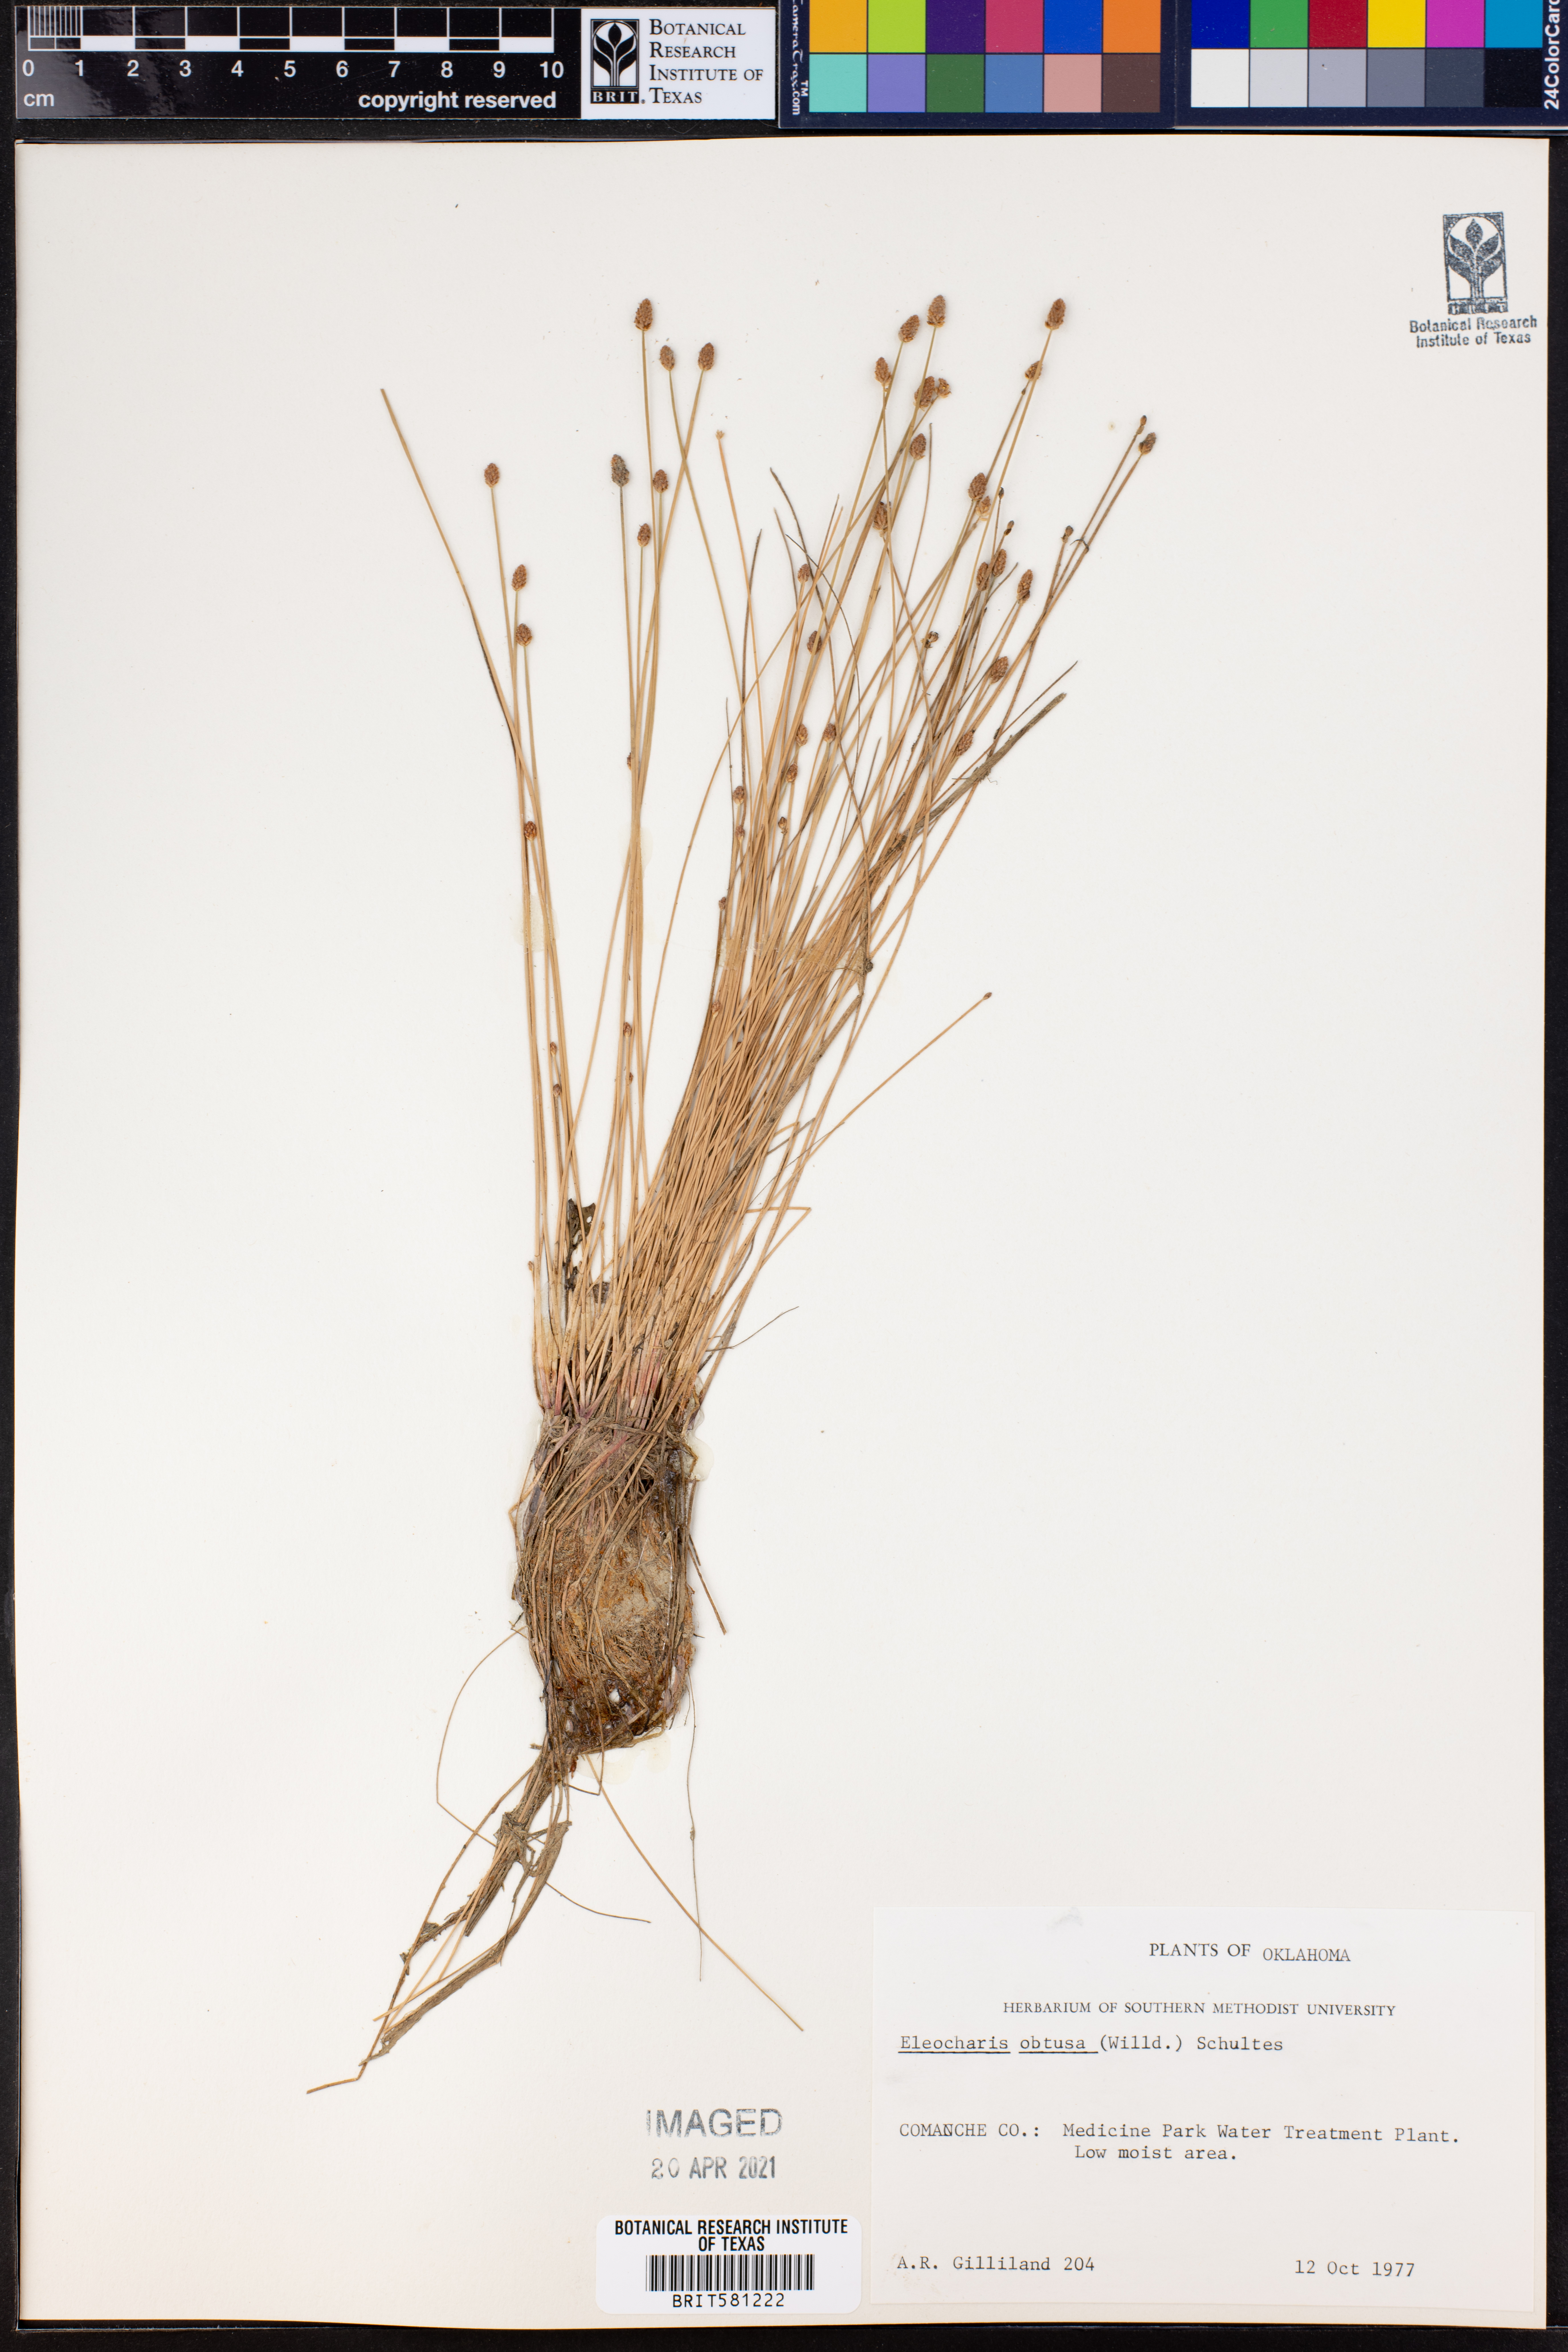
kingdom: Plantae
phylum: Tracheophyta
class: Liliopsida
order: Poales
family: Cyperaceae
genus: Eleocharis
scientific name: Eleocharis obtusa
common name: Blunt spikerush
